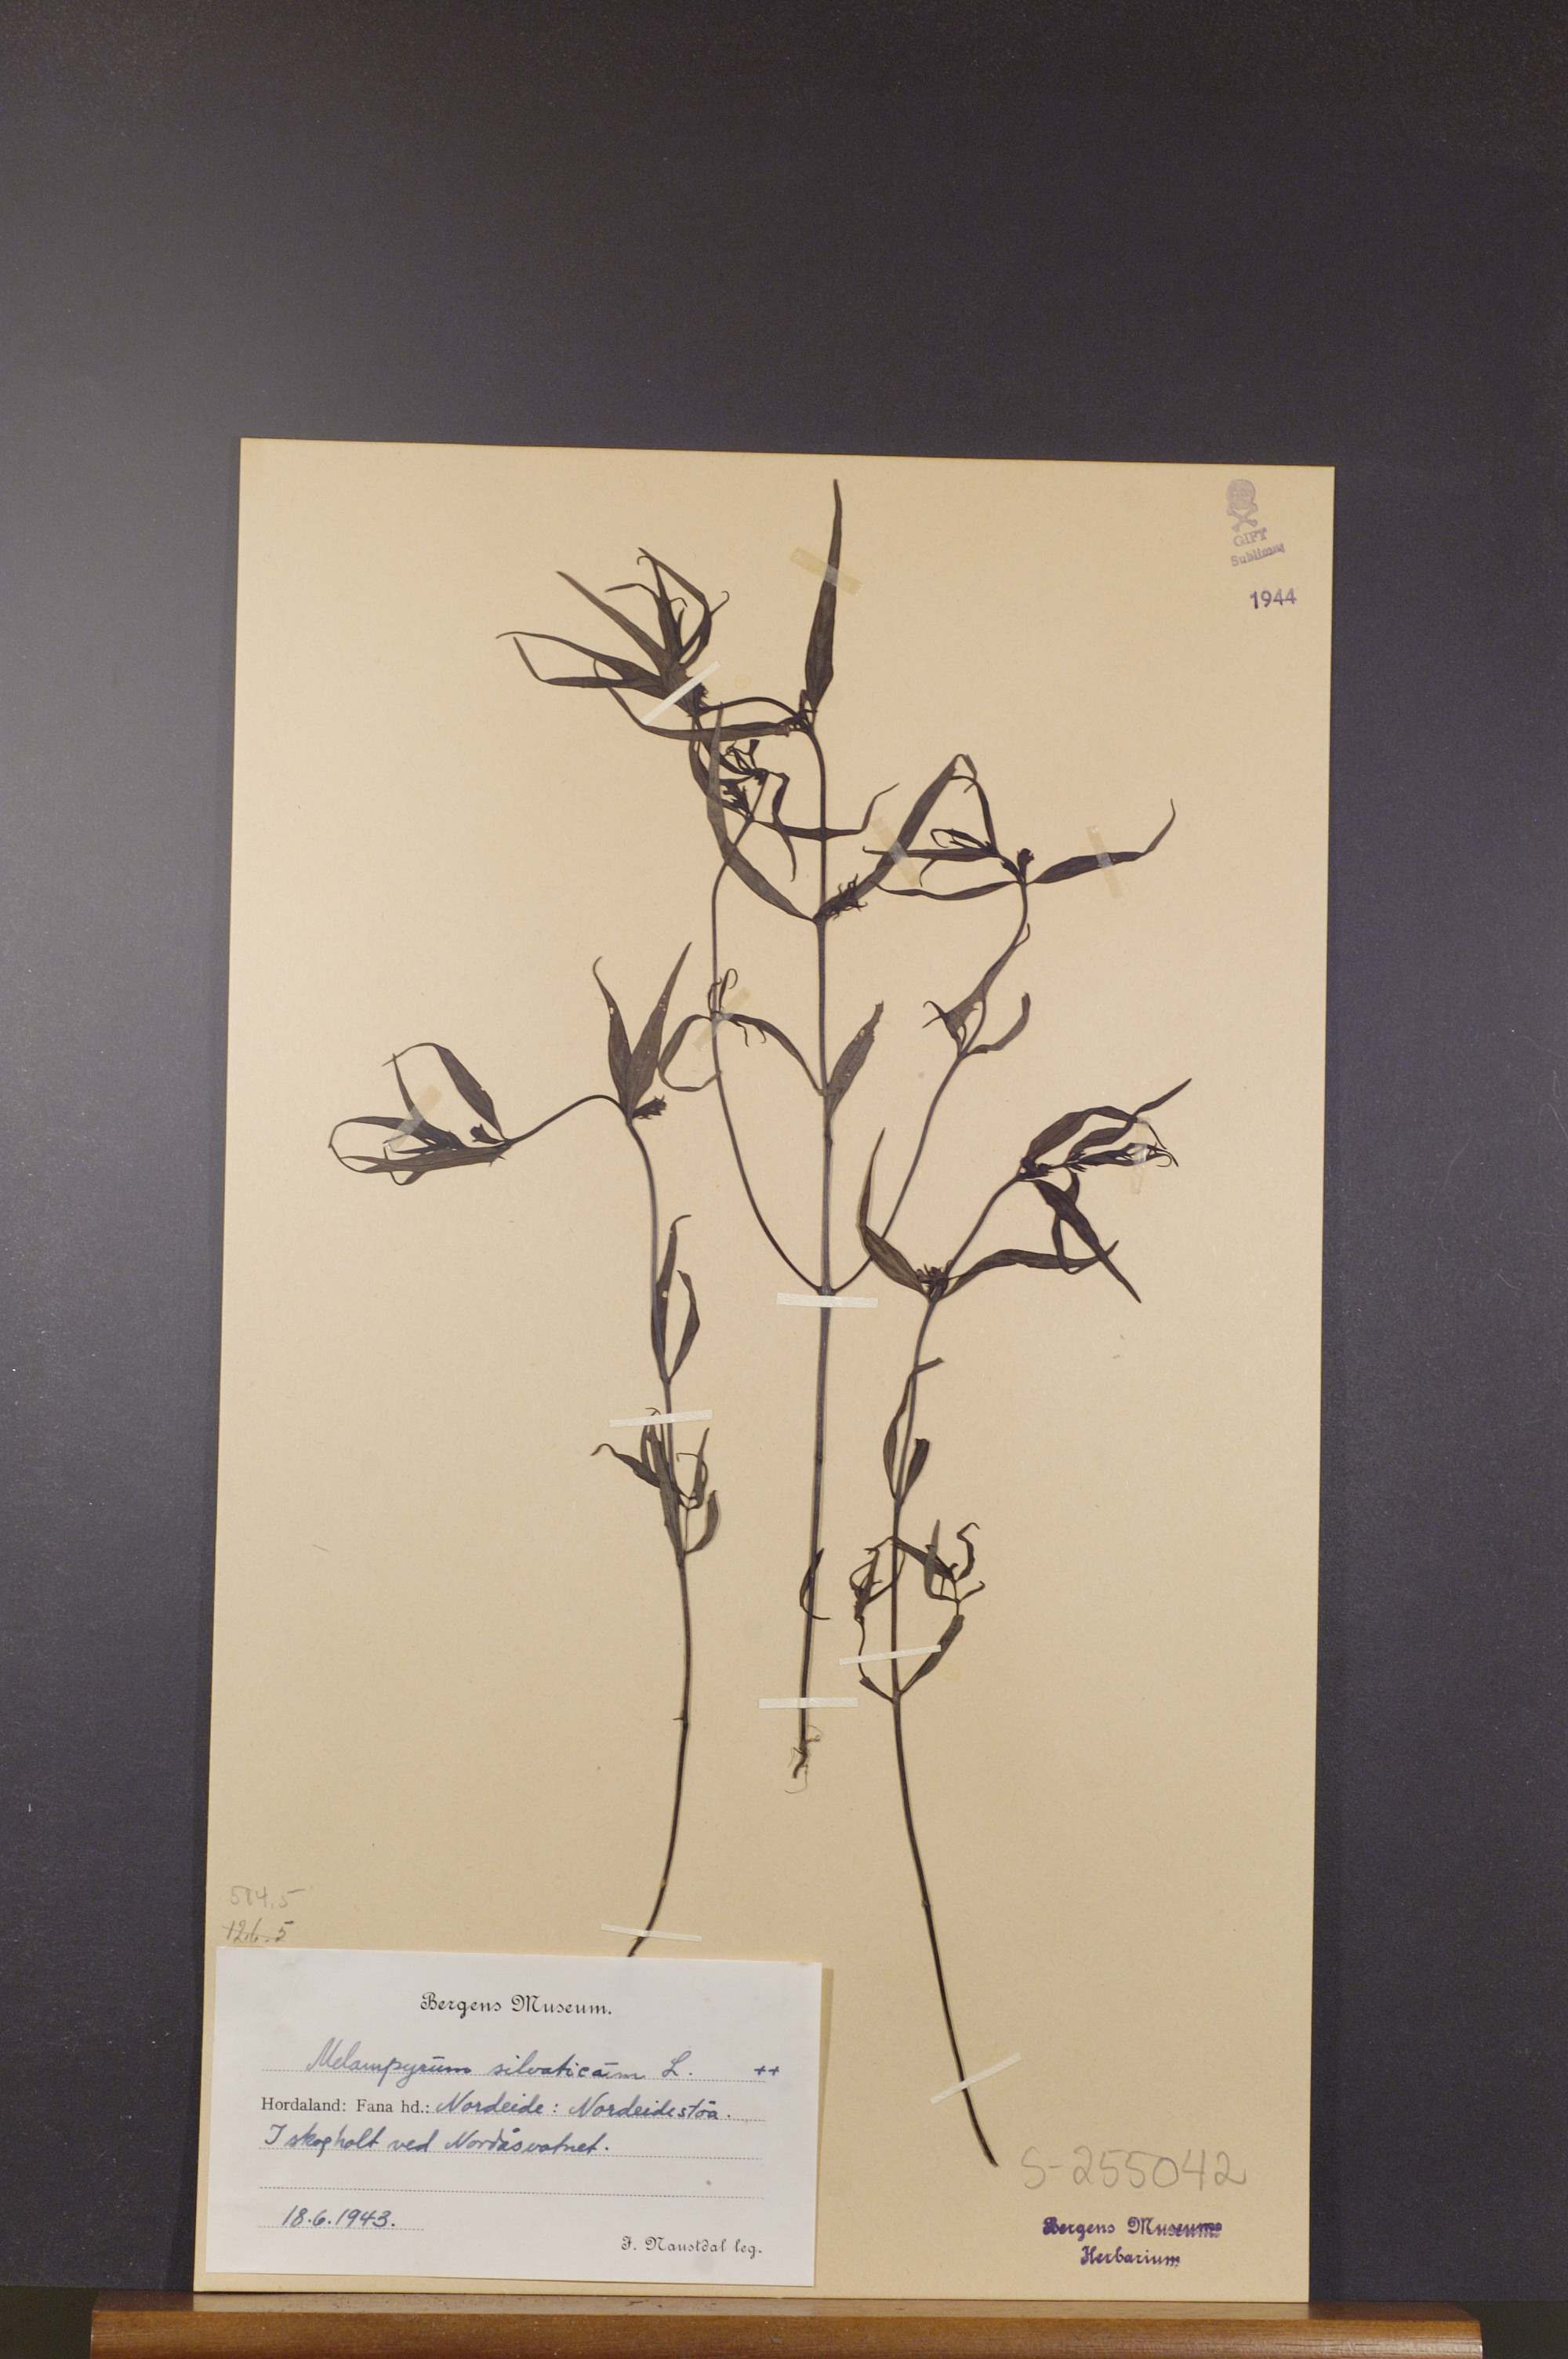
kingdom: Plantae
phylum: Tracheophyta
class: Magnoliopsida
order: Lamiales
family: Orobanchaceae
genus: Melampyrum
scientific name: Melampyrum sylvaticum
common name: Small cow-wheat
